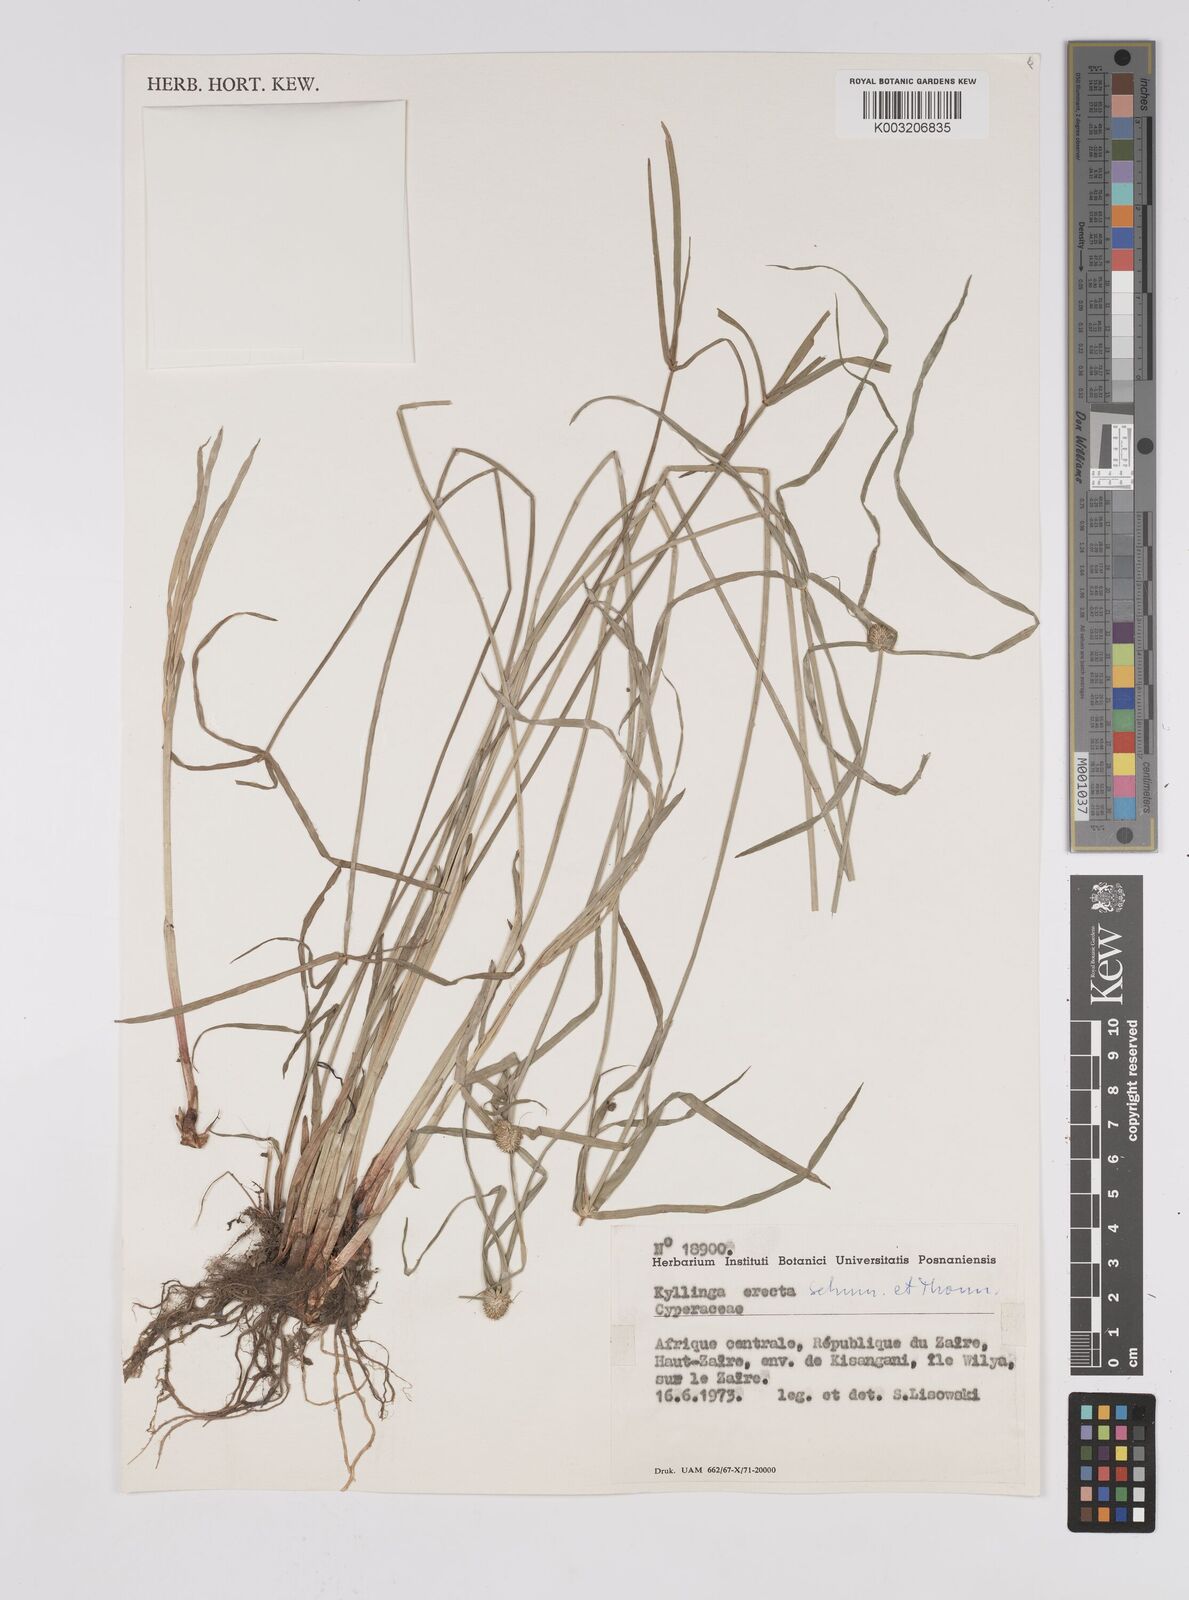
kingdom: Plantae
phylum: Tracheophyta
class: Liliopsida
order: Poales
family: Cyperaceae
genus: Cyperus
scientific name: Cyperus erectus
